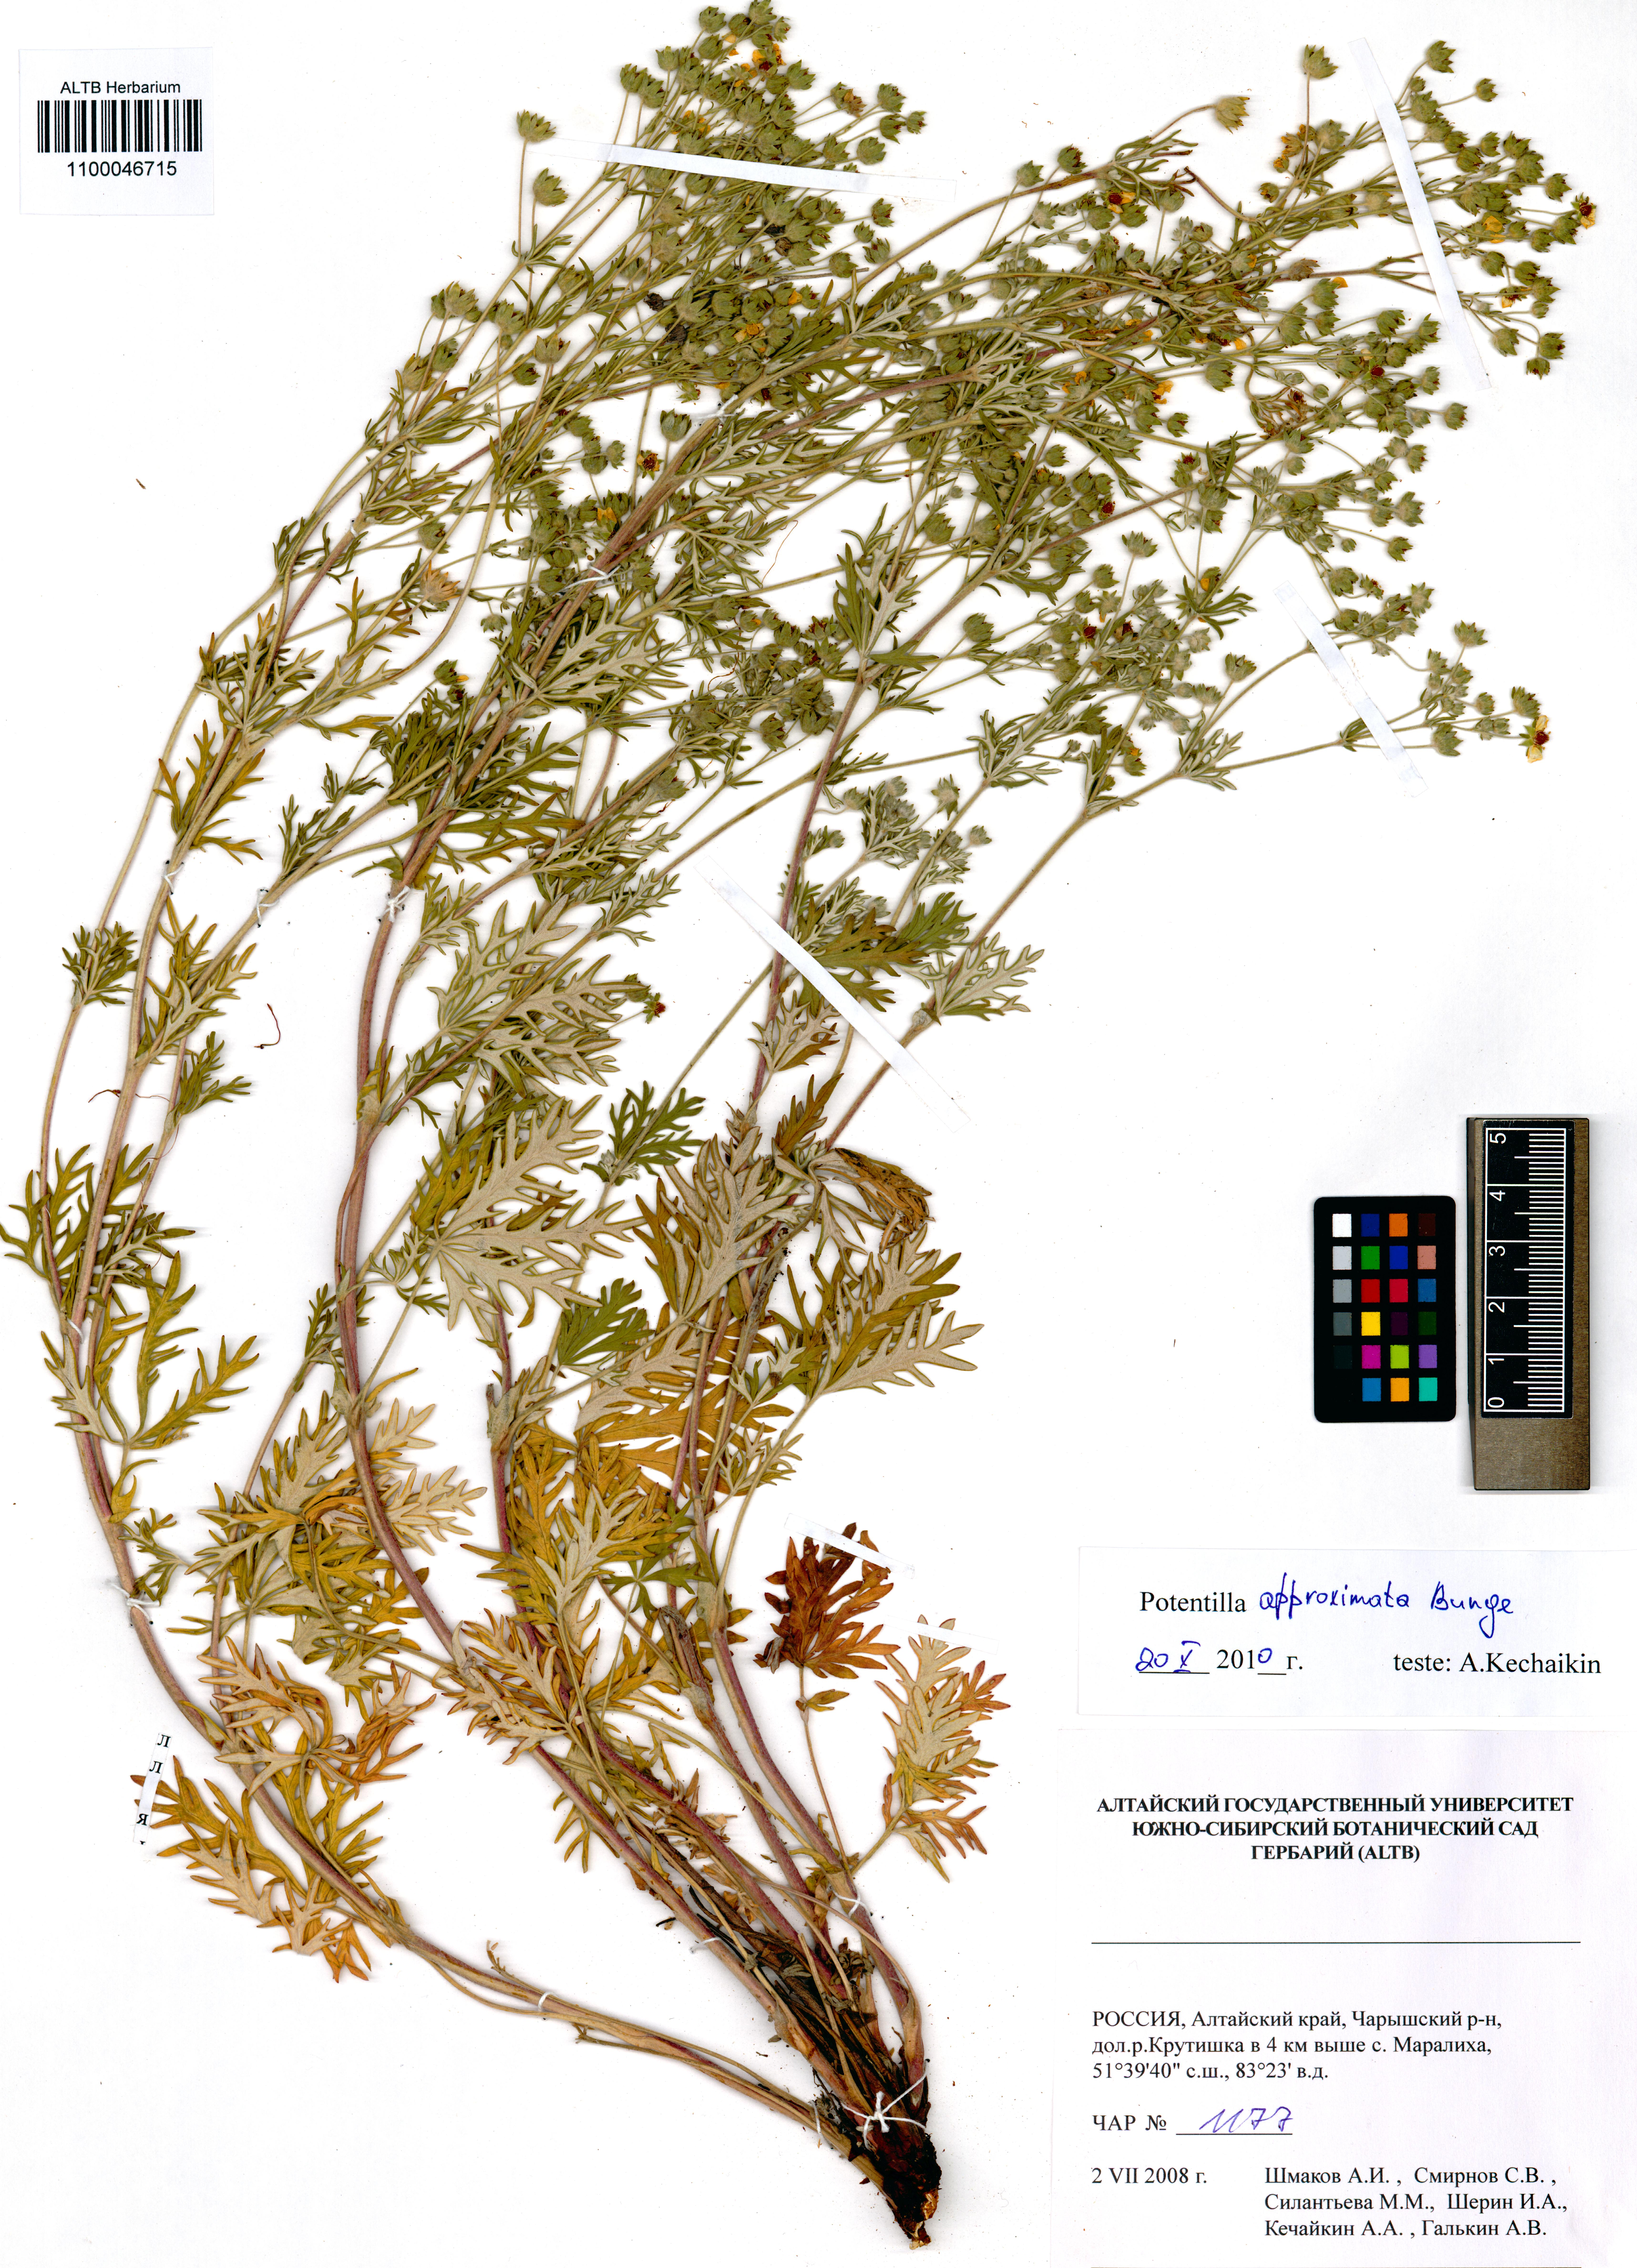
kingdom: Plantae
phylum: Tracheophyta
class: Magnoliopsida
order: Rosales
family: Rosaceae
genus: Potentilla
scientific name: Potentilla conferta
